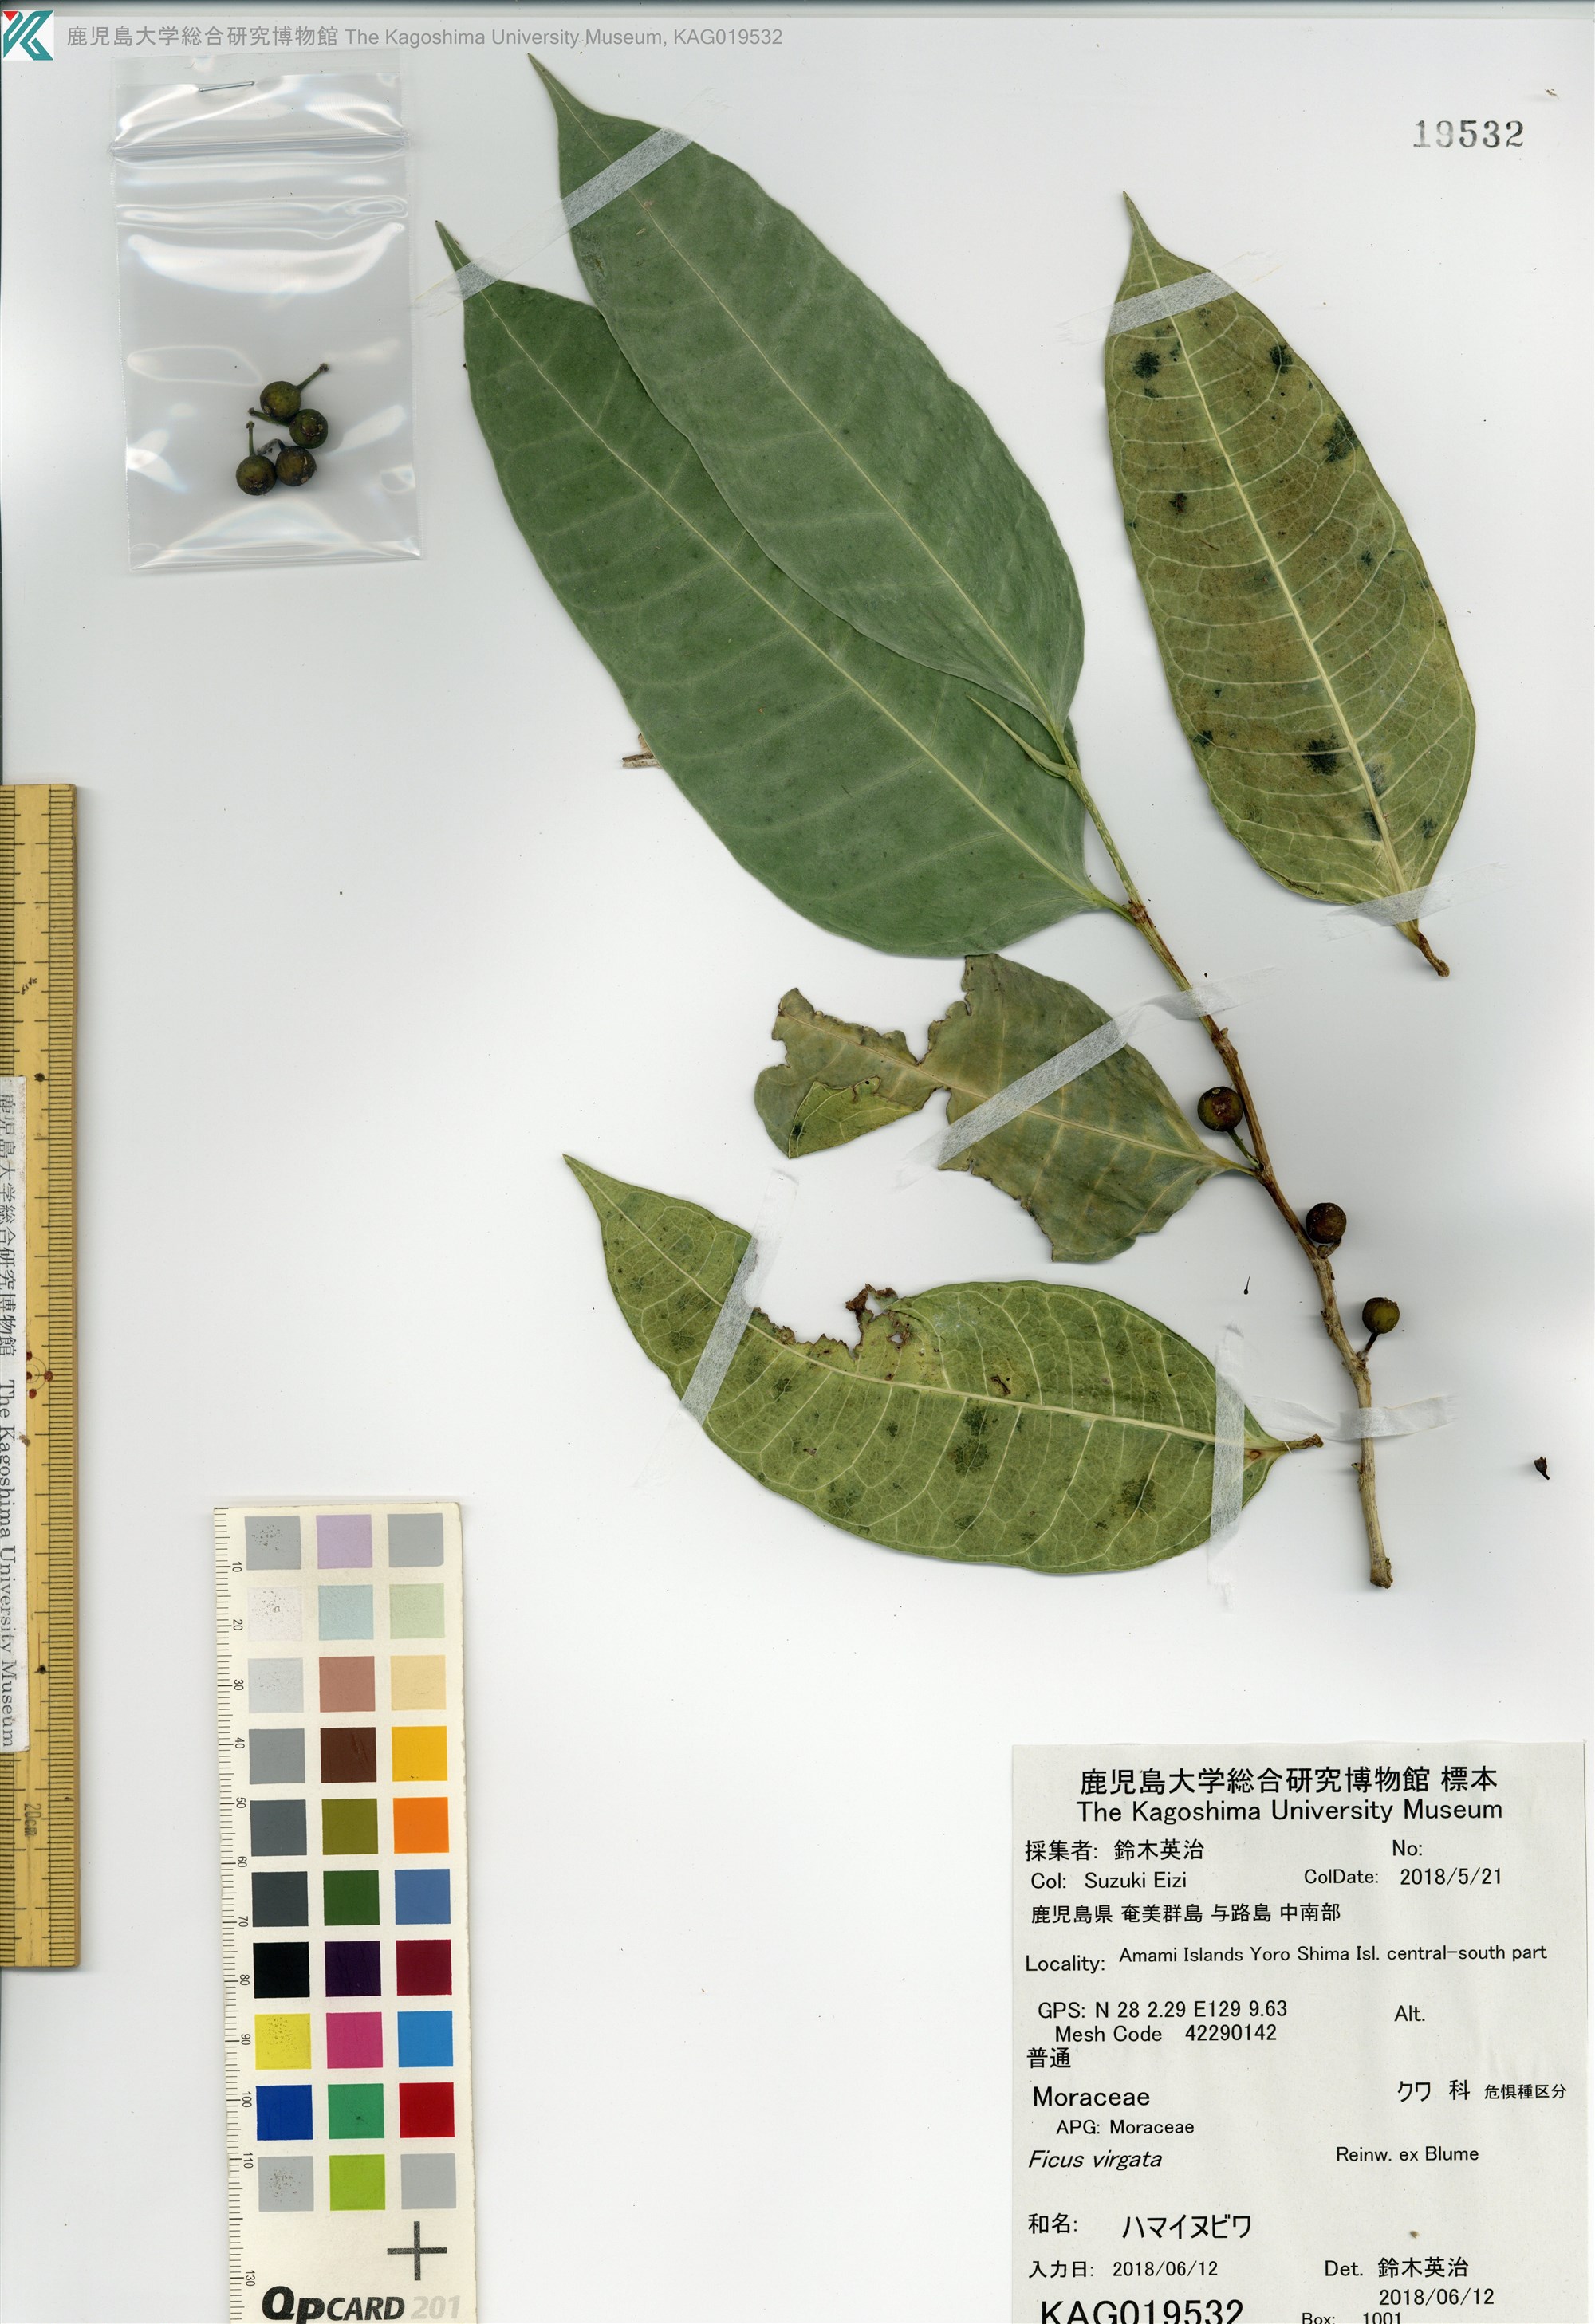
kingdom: Plantae
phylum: Tracheophyta
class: Magnoliopsida
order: Rosales
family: Moraceae
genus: Ficus
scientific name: Ficus virgata
